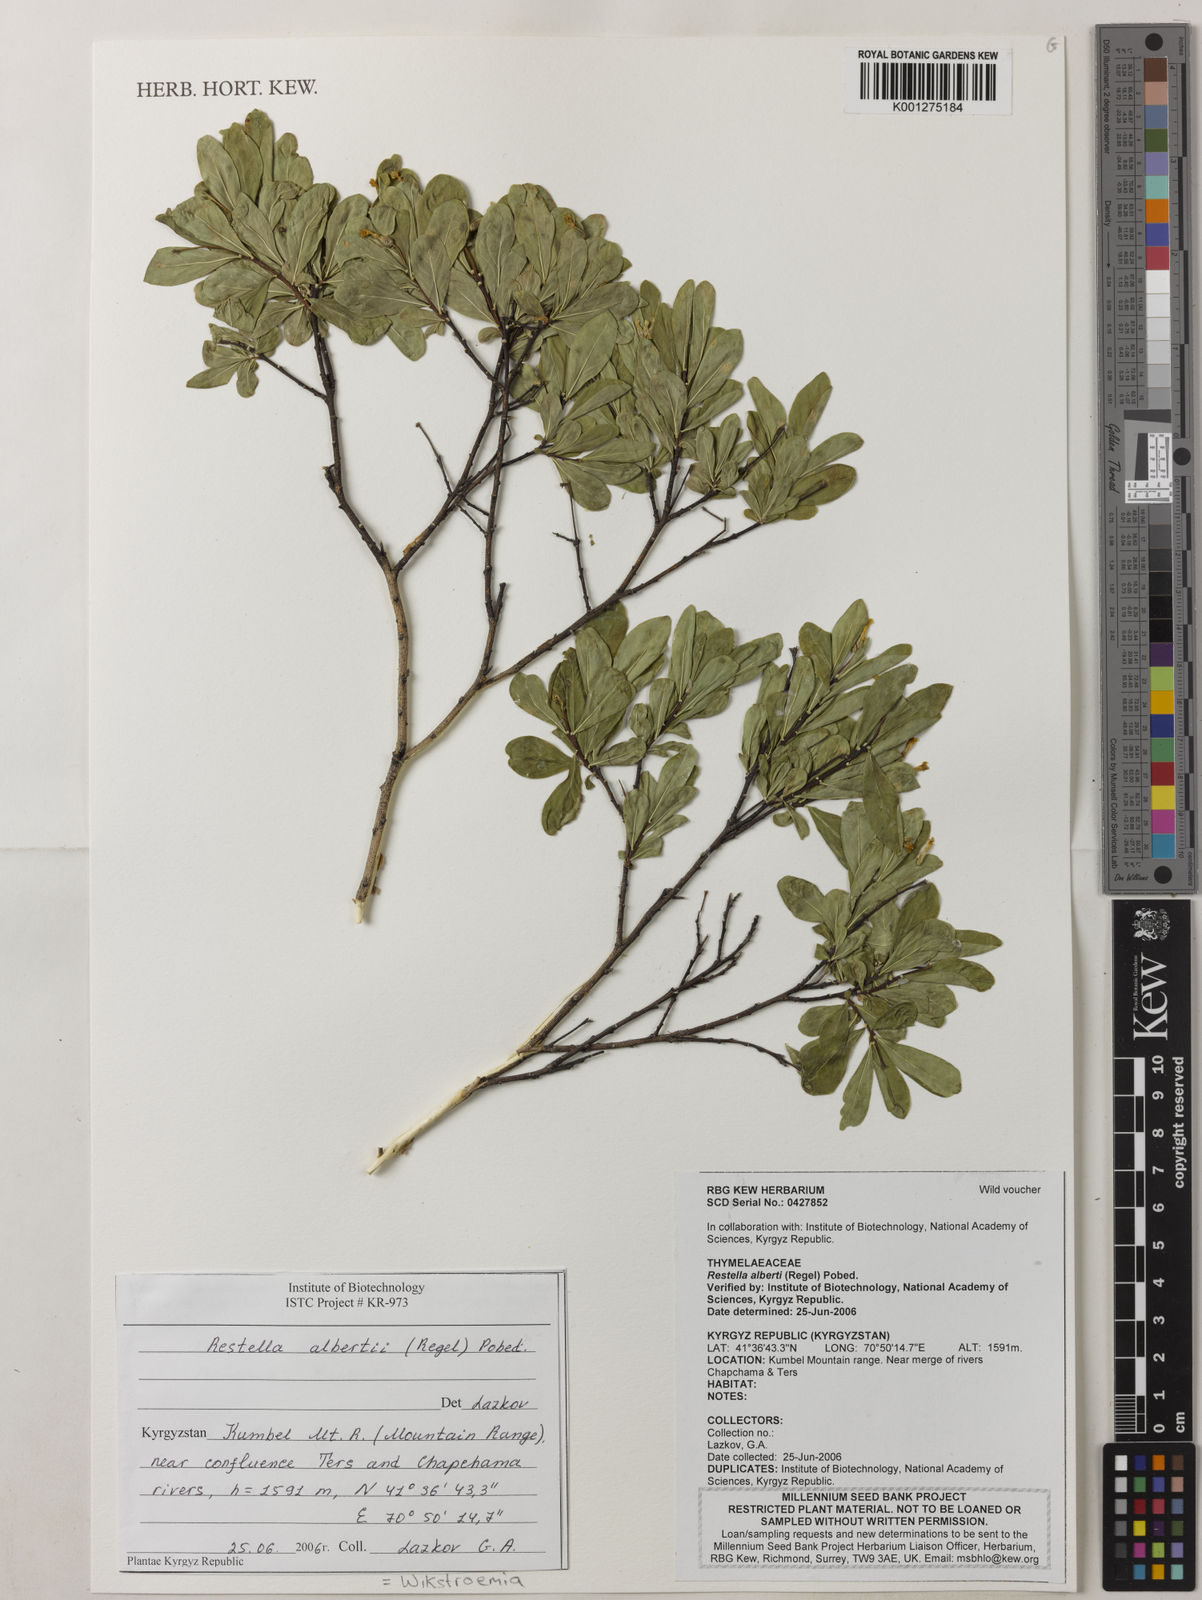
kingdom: Plantae
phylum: Tracheophyta
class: Magnoliopsida
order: Malvales
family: Thymelaeaceae
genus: Wikstroemia
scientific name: Wikstroemia alberti
